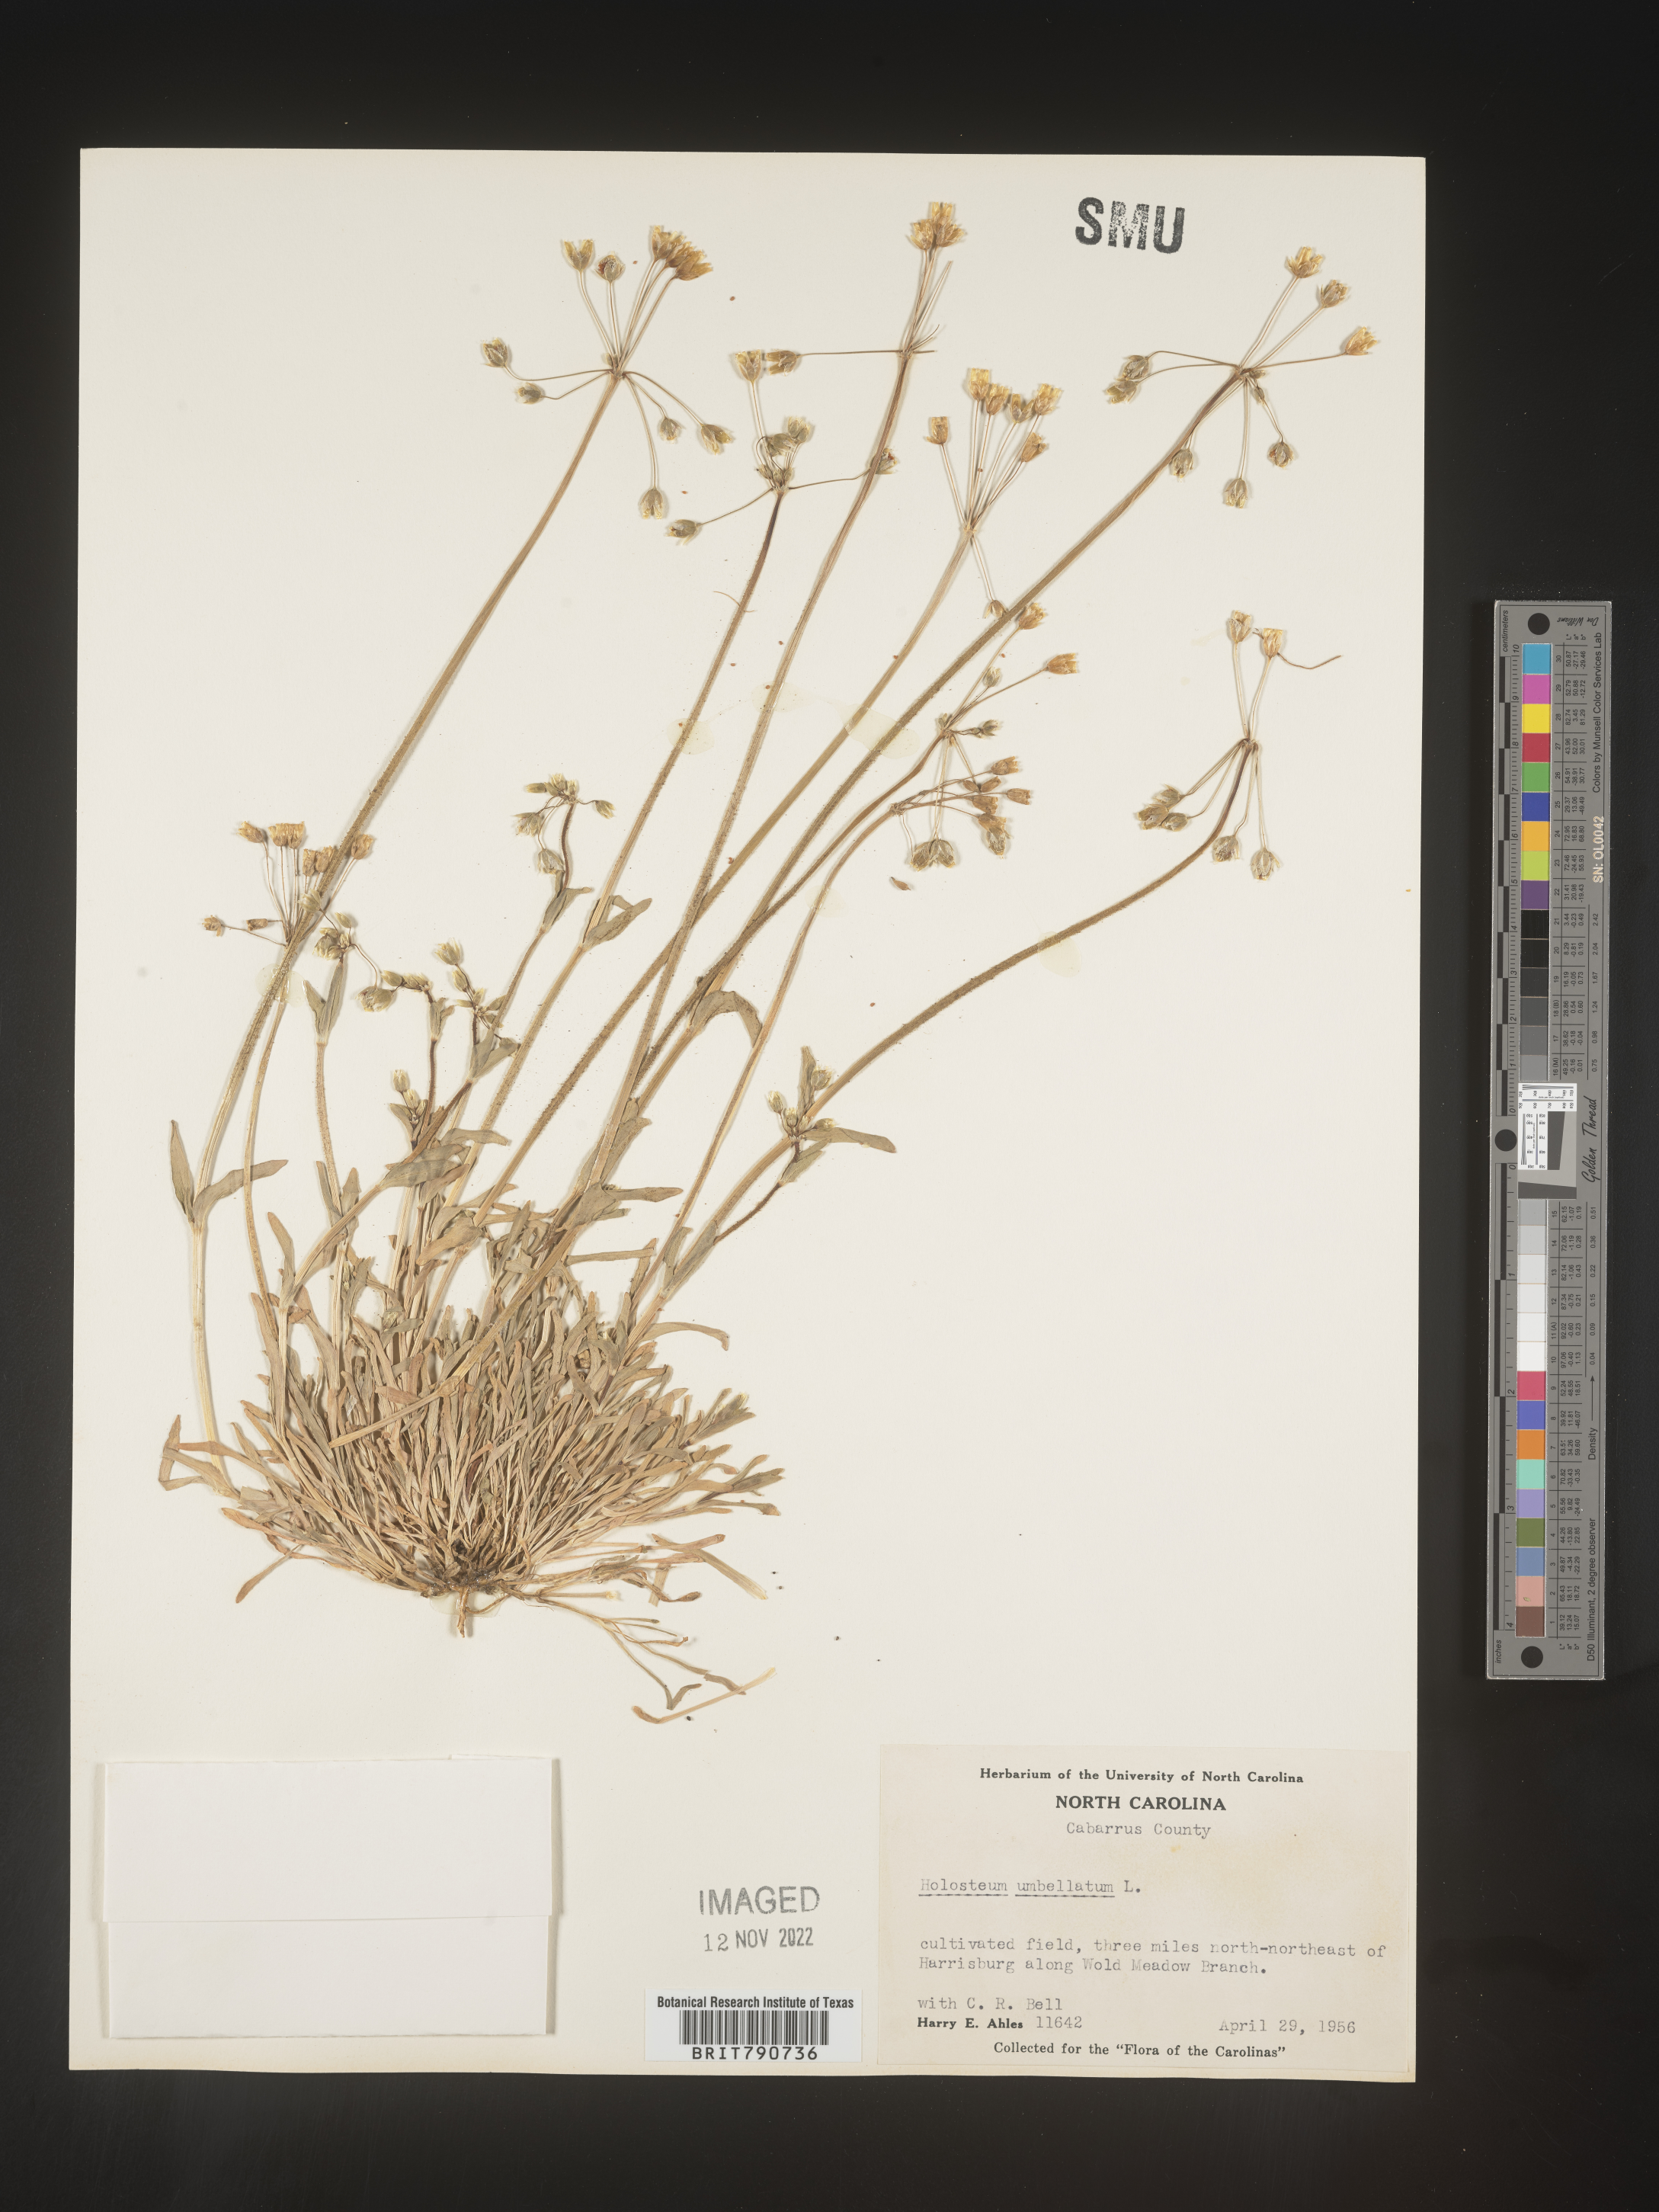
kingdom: Plantae
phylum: Tracheophyta
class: Magnoliopsida
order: Caryophyllales
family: Caryophyllaceae
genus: Holosteum
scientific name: Holosteum
